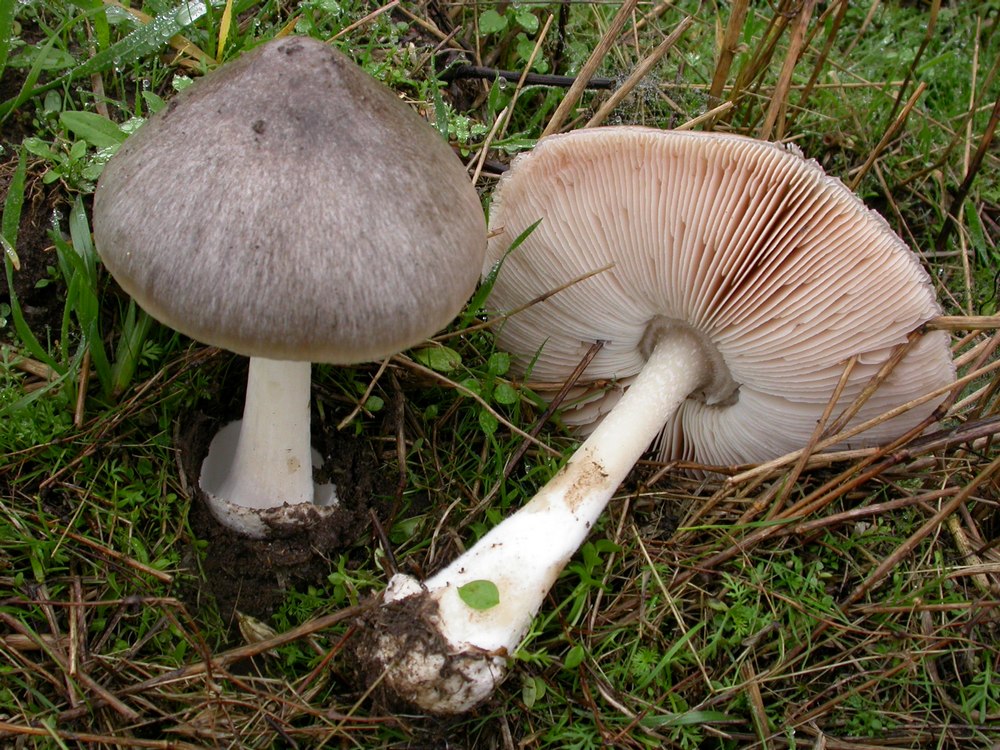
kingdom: Fungi
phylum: Basidiomycota
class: Agaricomycetes
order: Agaricales
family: Pluteaceae
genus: Volvopluteus
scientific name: Volvopluteus gloiocephalus
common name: høj posesvamp
